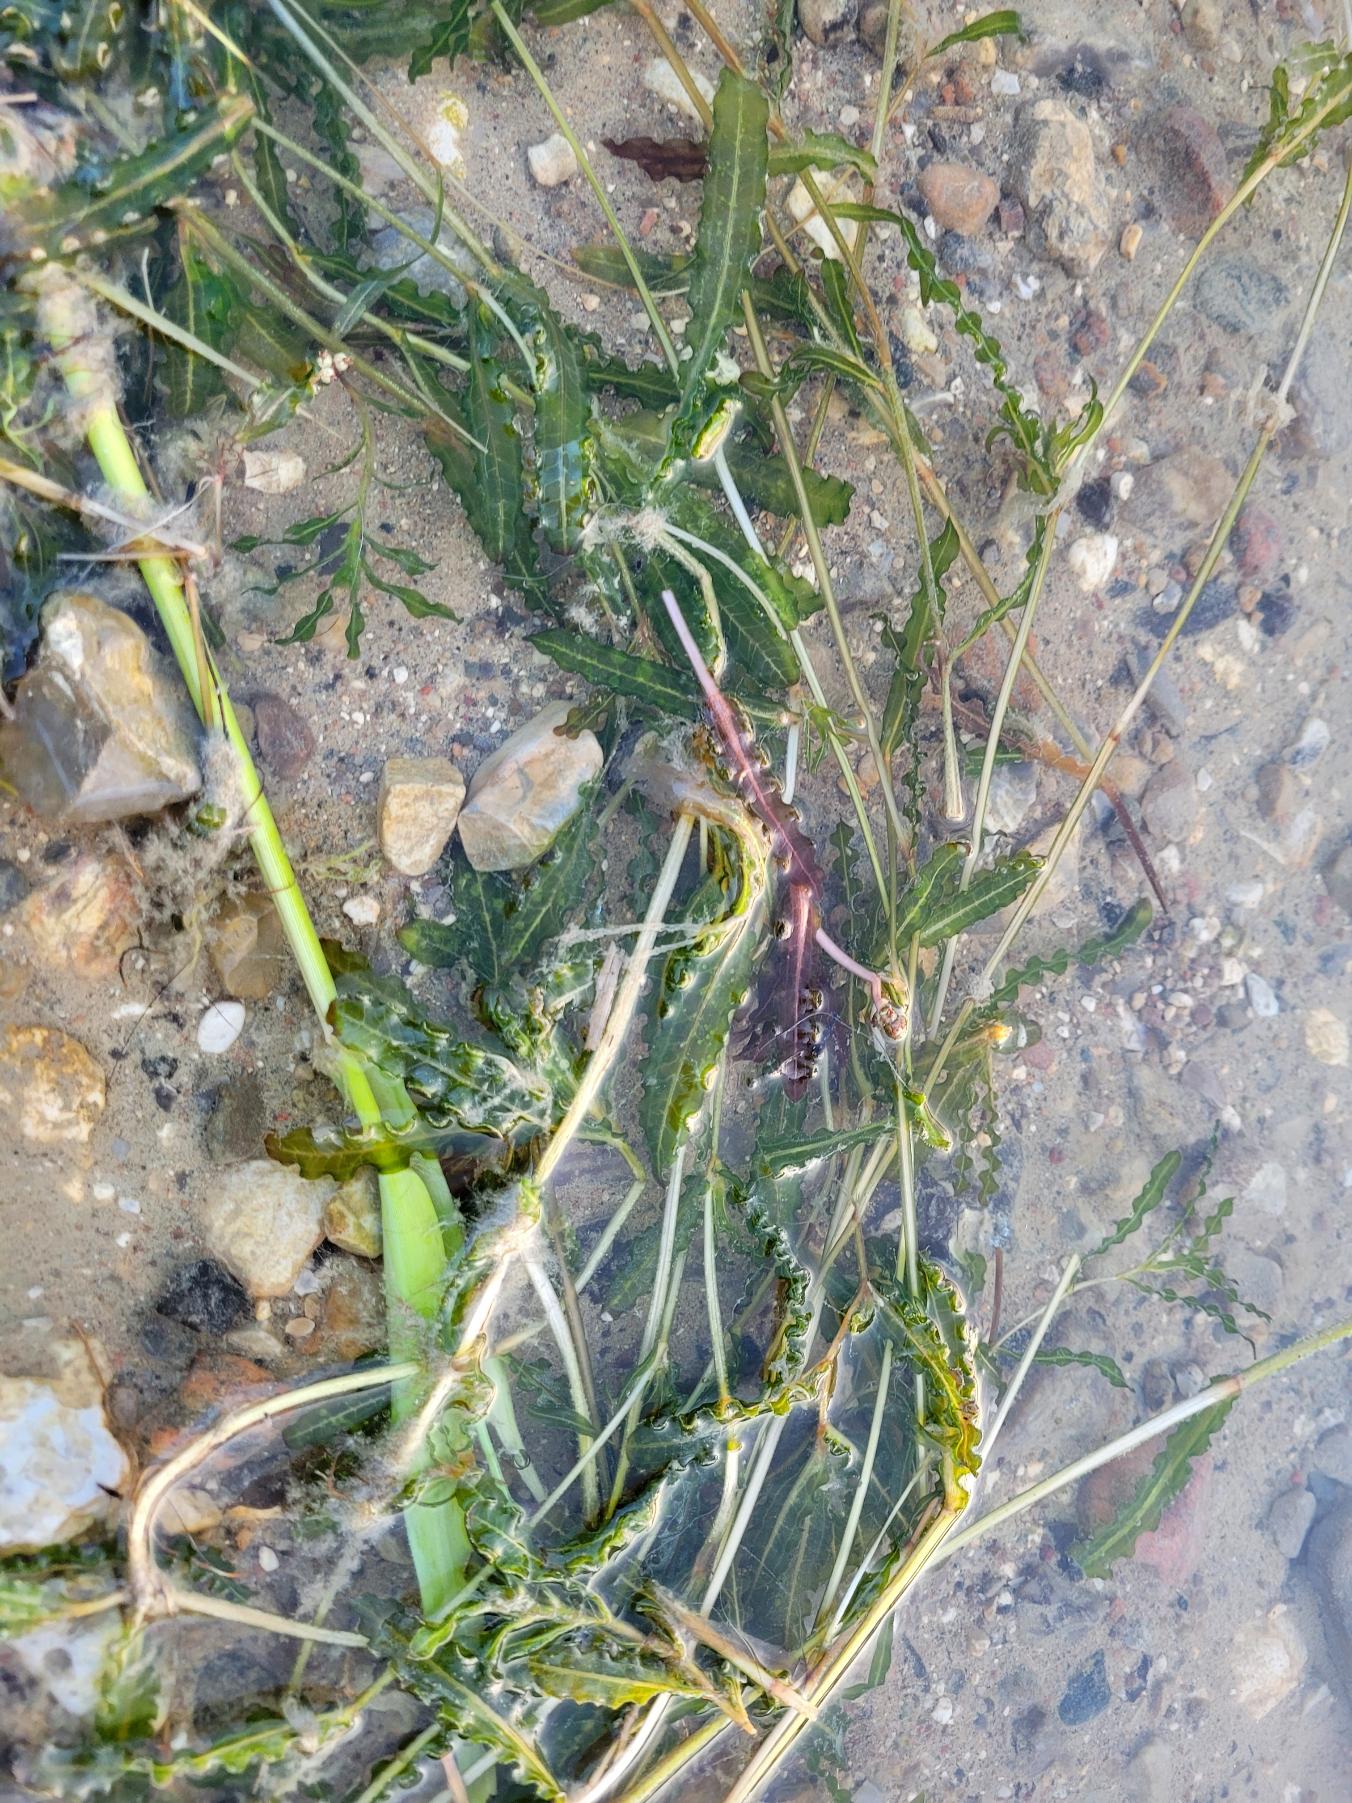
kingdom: Plantae
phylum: Tracheophyta
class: Liliopsida
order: Alismatales
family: Potamogetonaceae
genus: Potamogeton
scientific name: Potamogeton crispus
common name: Kruset vandaks
